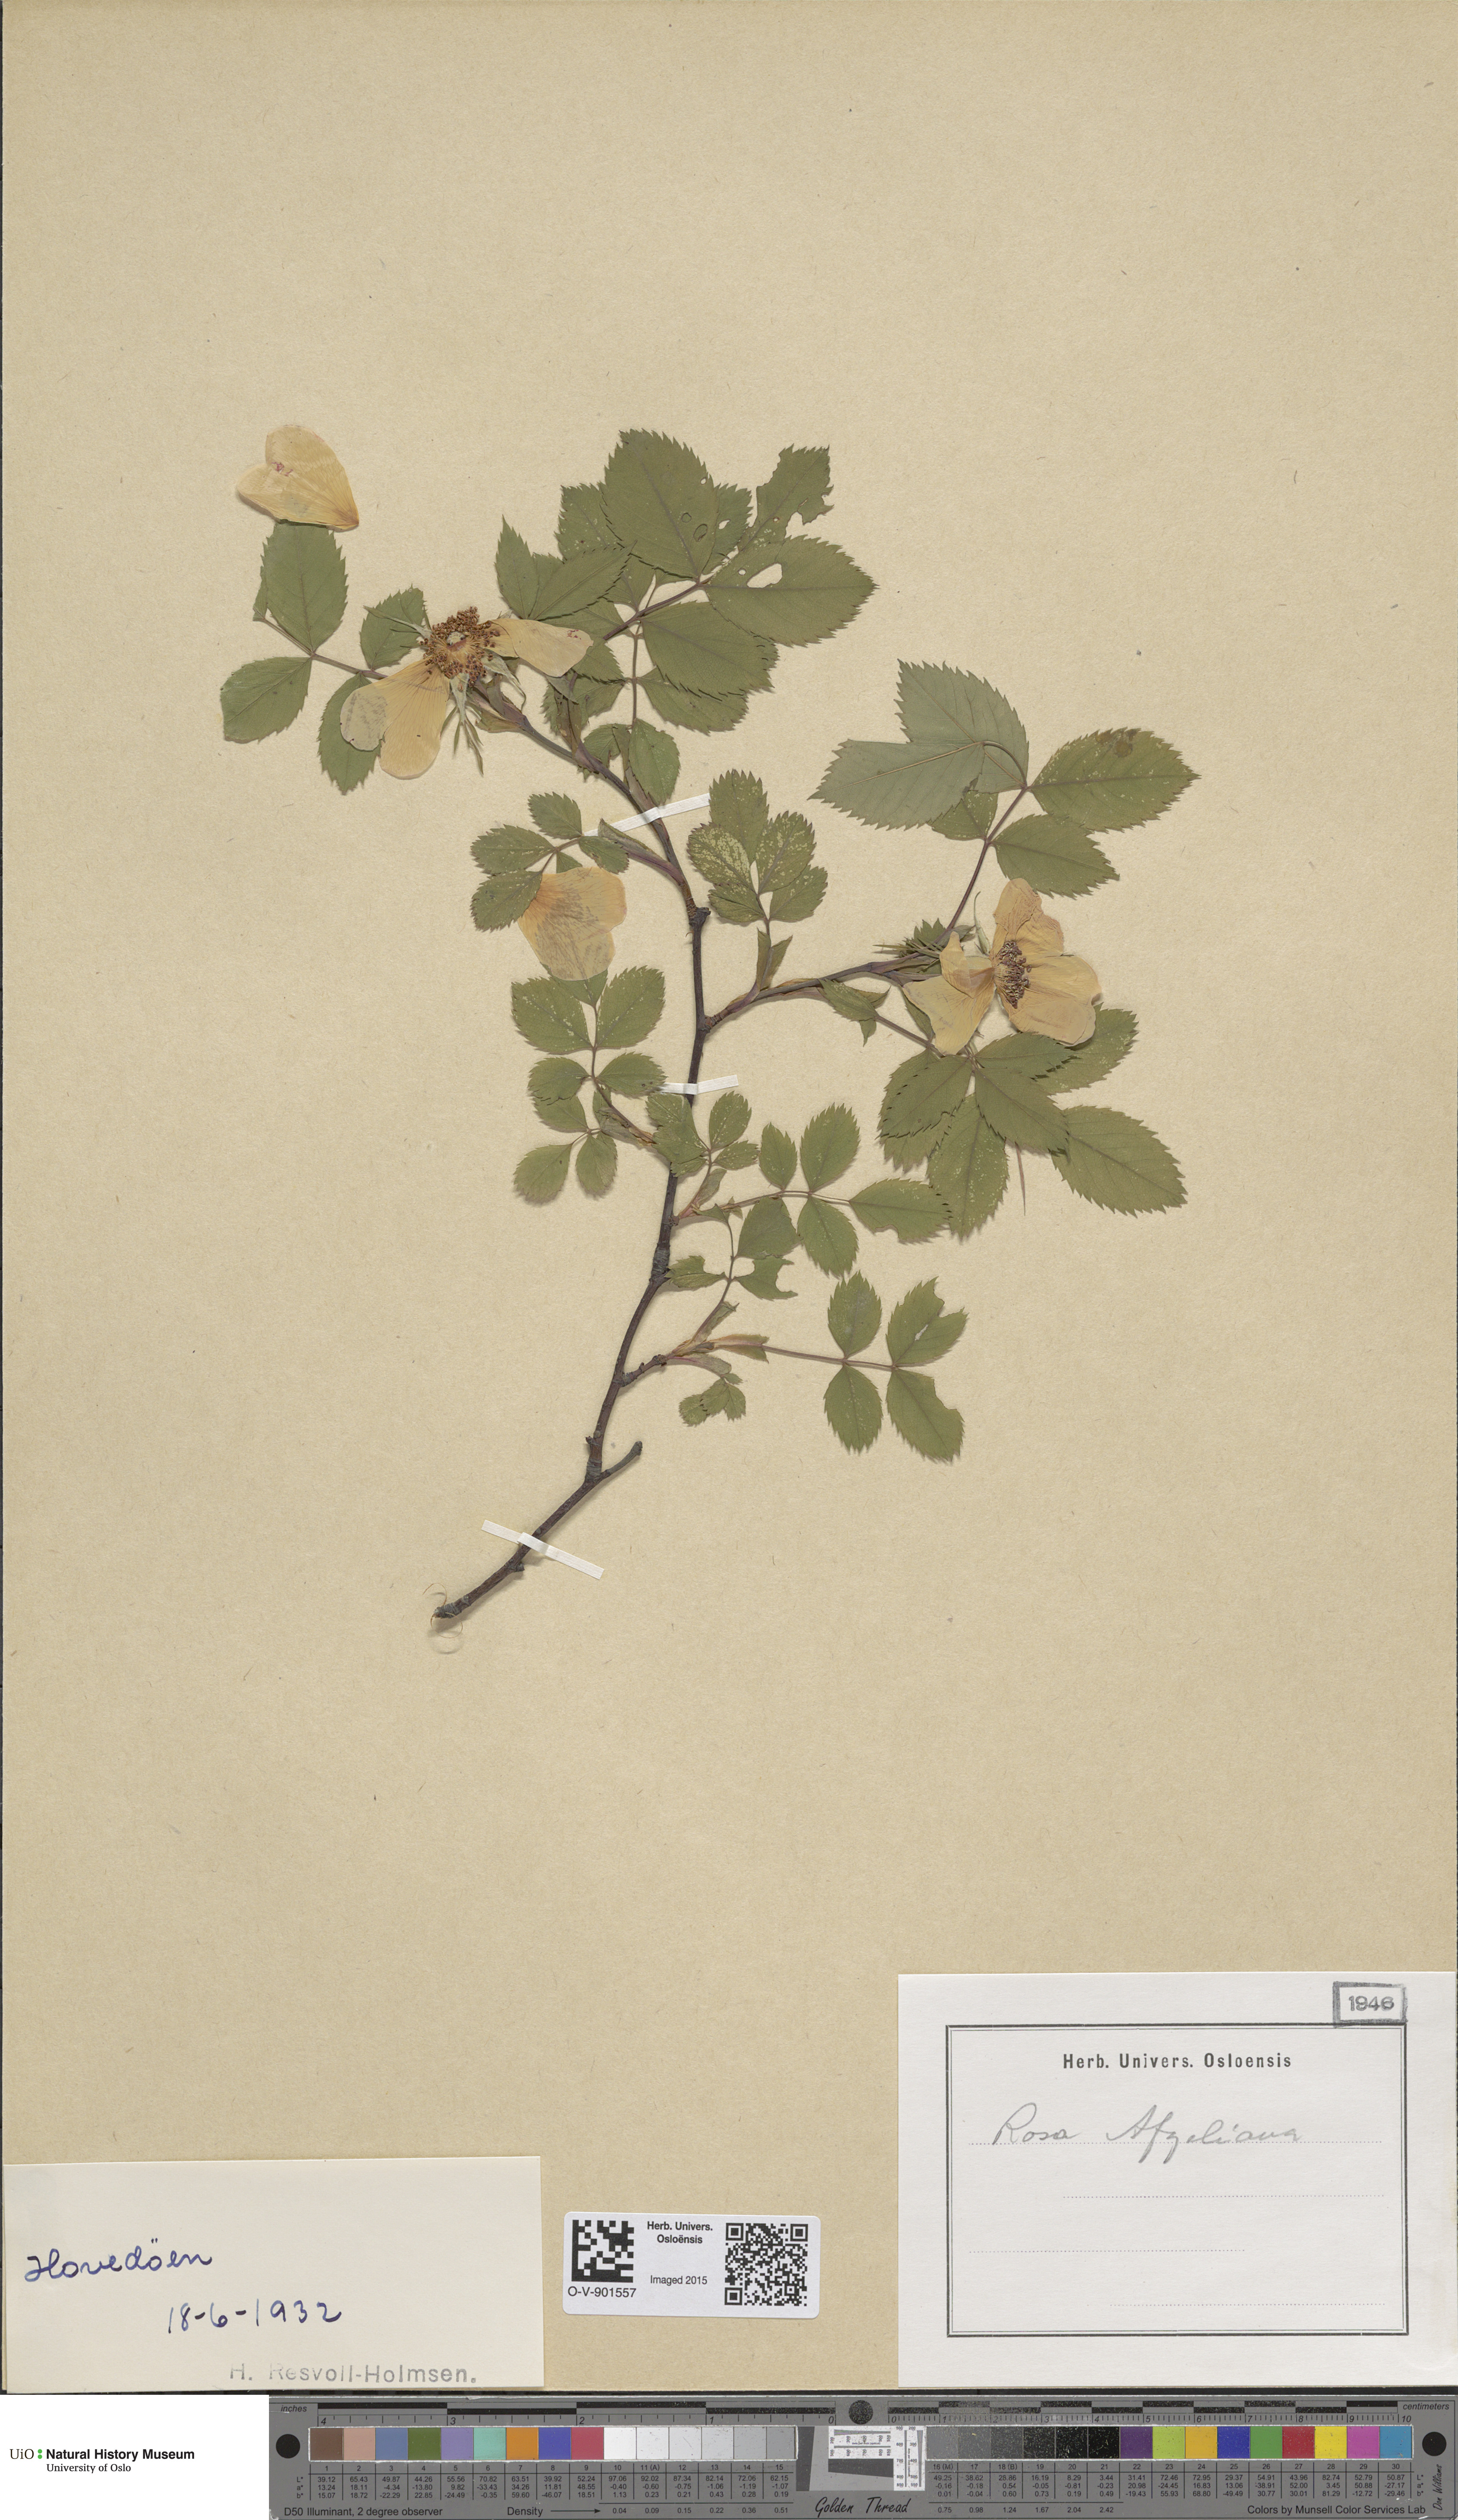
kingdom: Plantae
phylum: Tracheophyta
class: Magnoliopsida
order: Rosales
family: Rosaceae
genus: Rosa
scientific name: Rosa
